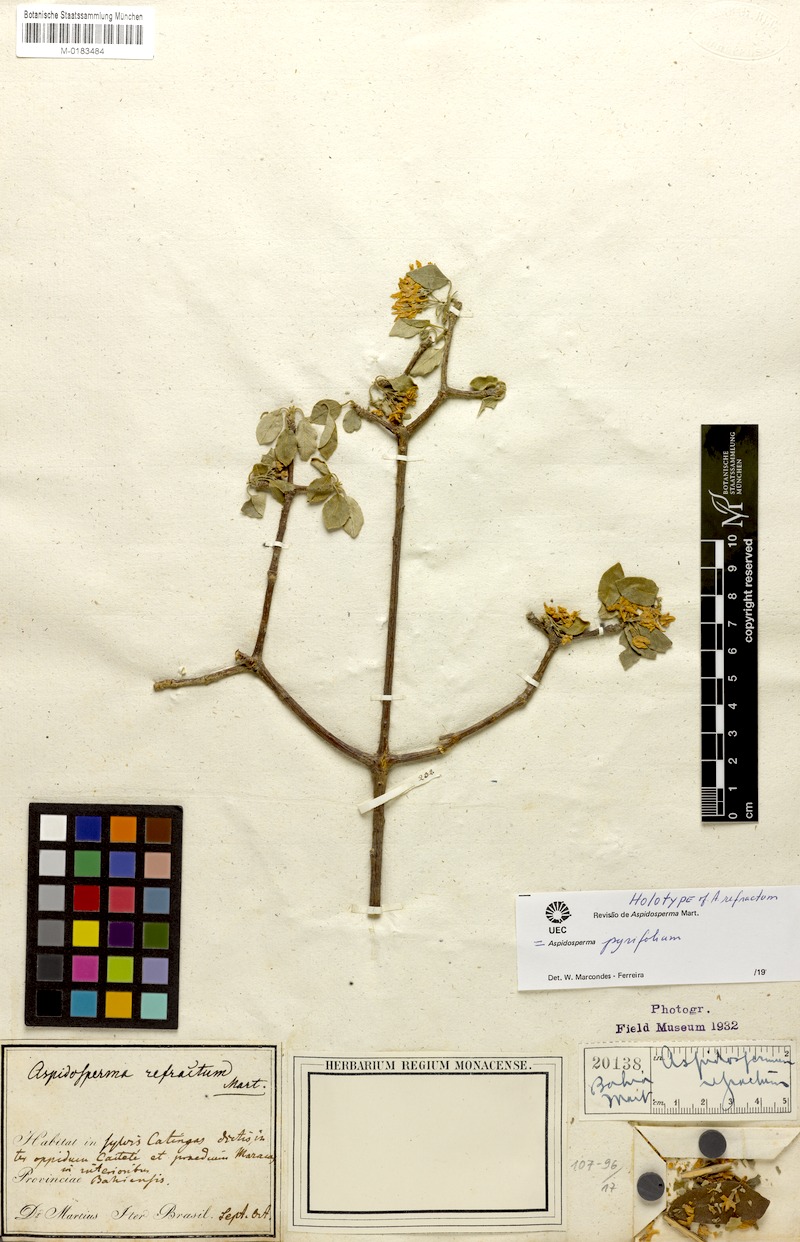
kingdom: Plantae
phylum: Tracheophyta
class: Magnoliopsida
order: Gentianales
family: Apocynaceae
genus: Aspidosperma
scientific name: Aspidosperma pyrifolium
